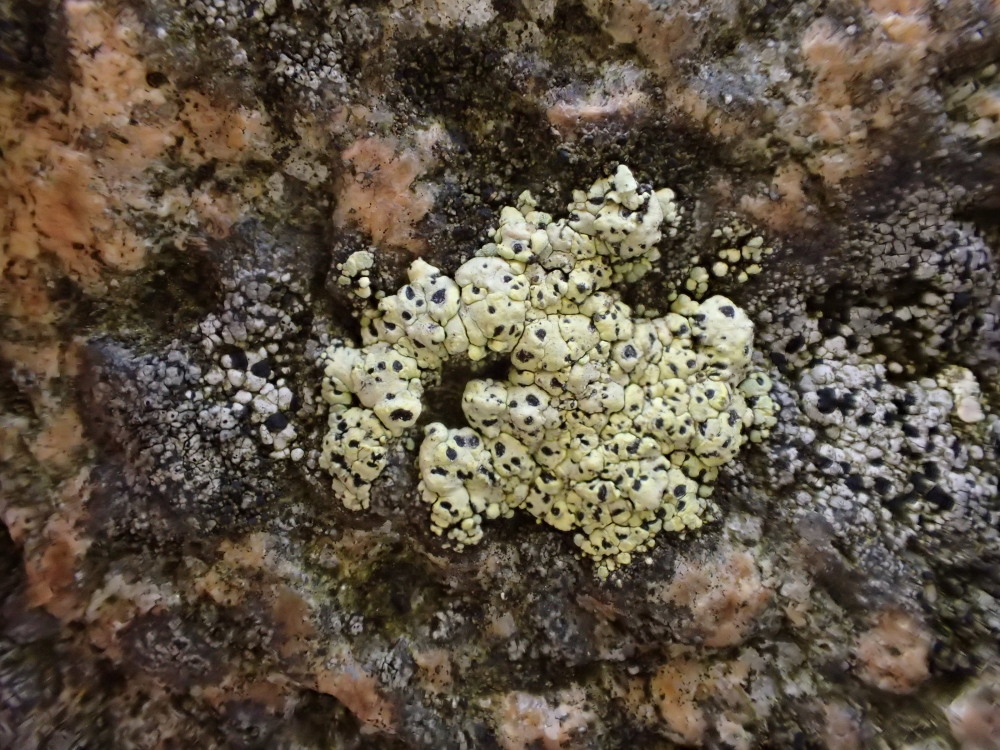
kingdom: Fungi
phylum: Ascomycota
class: Lecanoromycetes
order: Rhizocarpales
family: Rhizocarpaceae
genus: Rhizocarpon
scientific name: Rhizocarpon geographicum
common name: gulgrøn landkortlav
